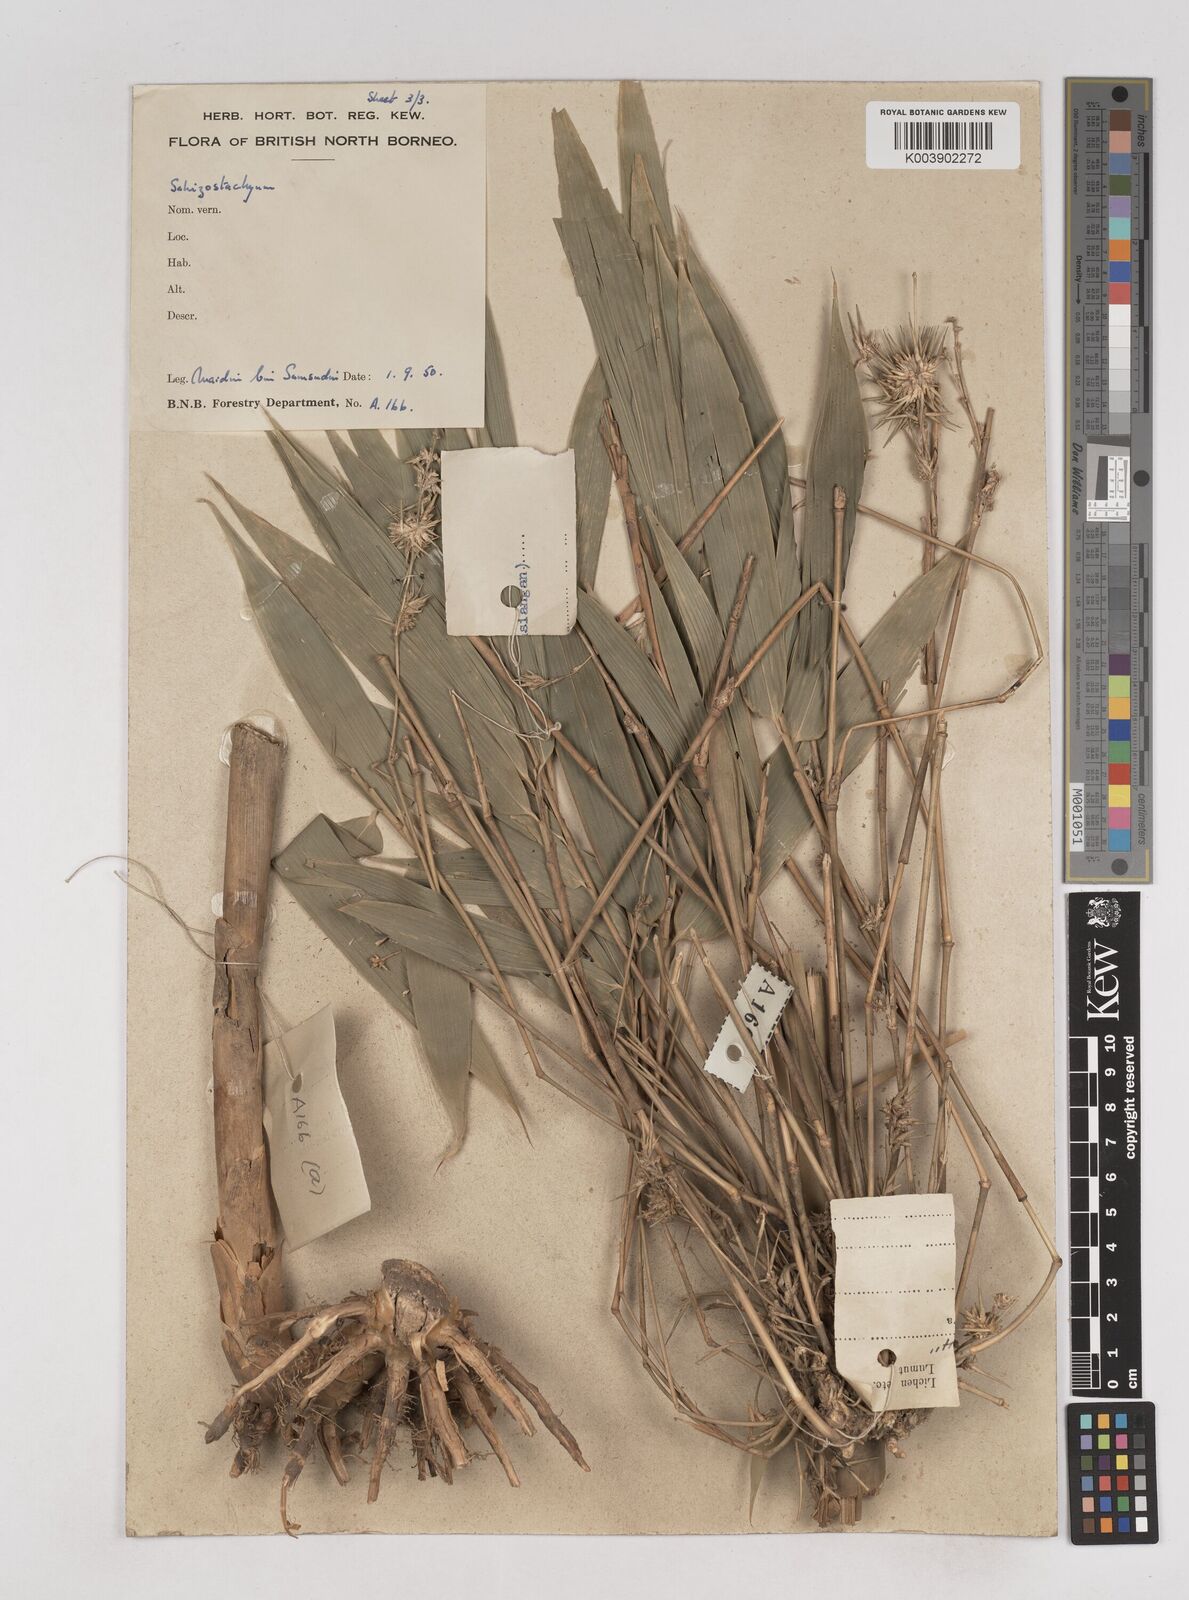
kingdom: Plantae
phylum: Tracheophyta
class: Liliopsida
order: Poales
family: Poaceae
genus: Schizostachyum
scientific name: Schizostachyum lima
